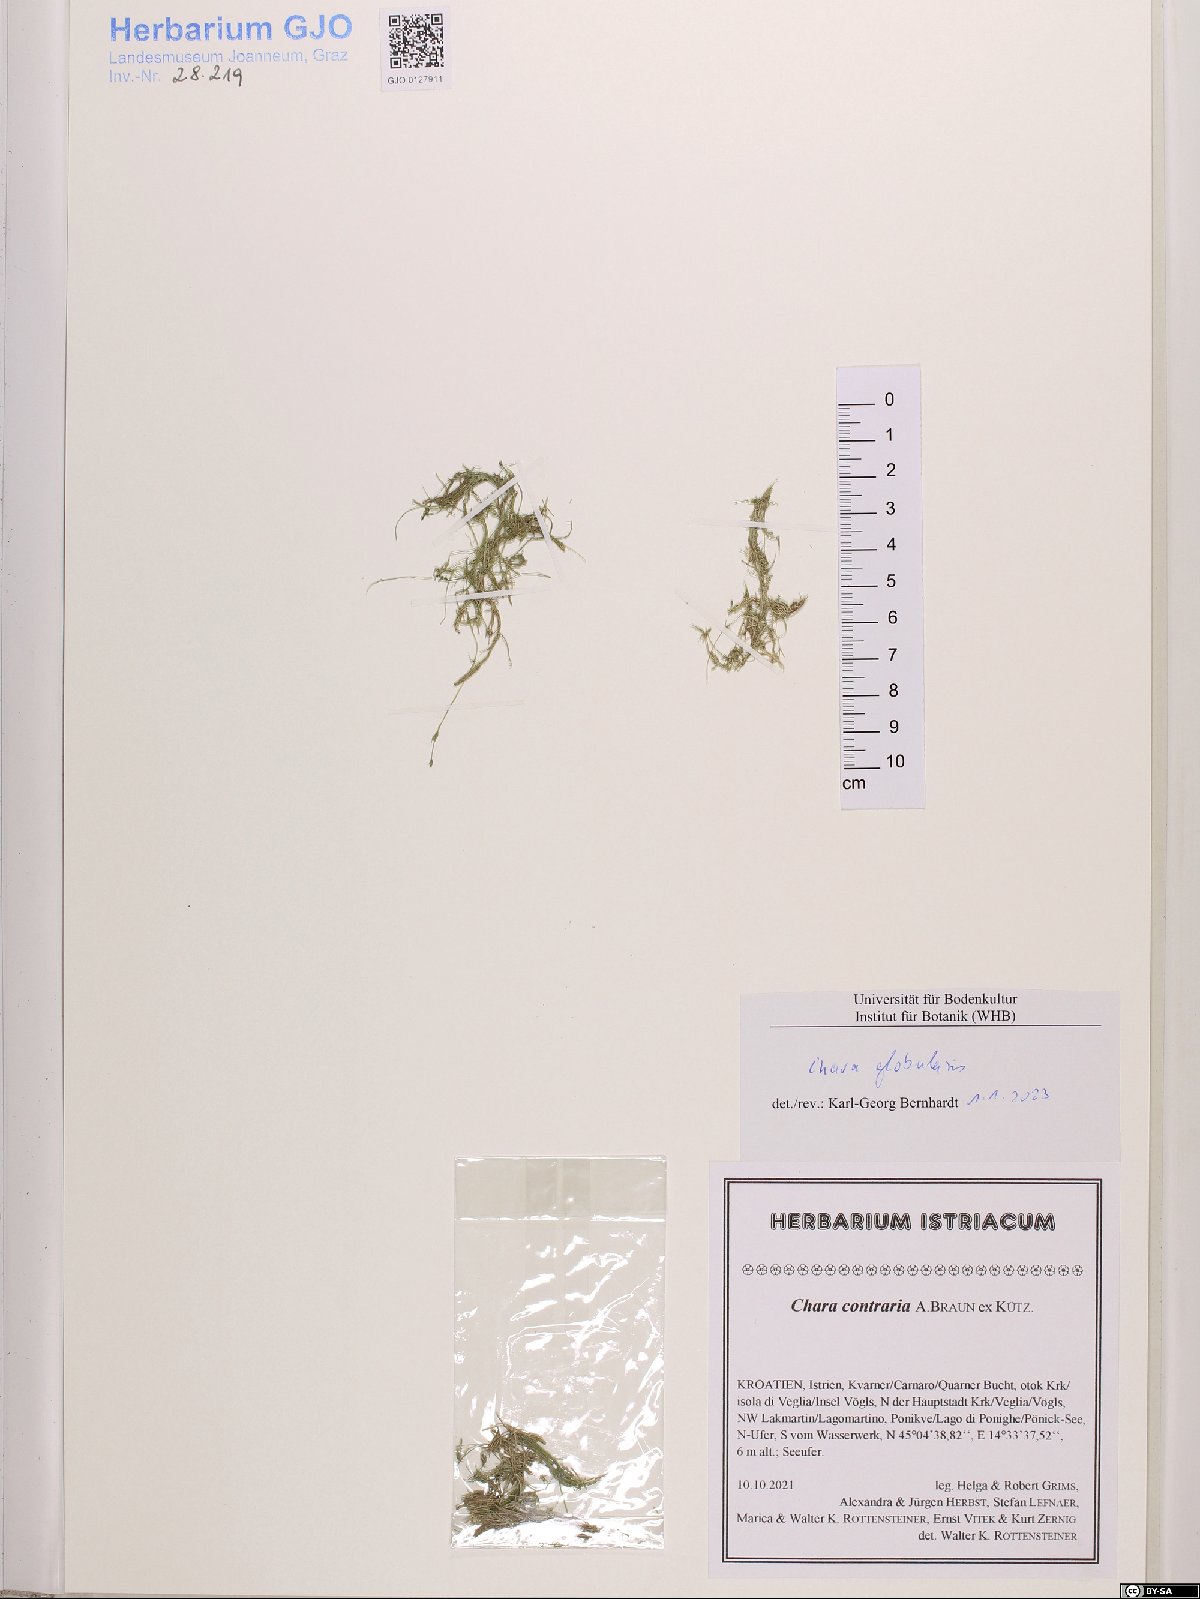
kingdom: Plantae
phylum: Charophyta
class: Charophyceae
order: Charales
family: Characeae
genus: Chara
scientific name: Chara globularis
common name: Fragile stonewort
